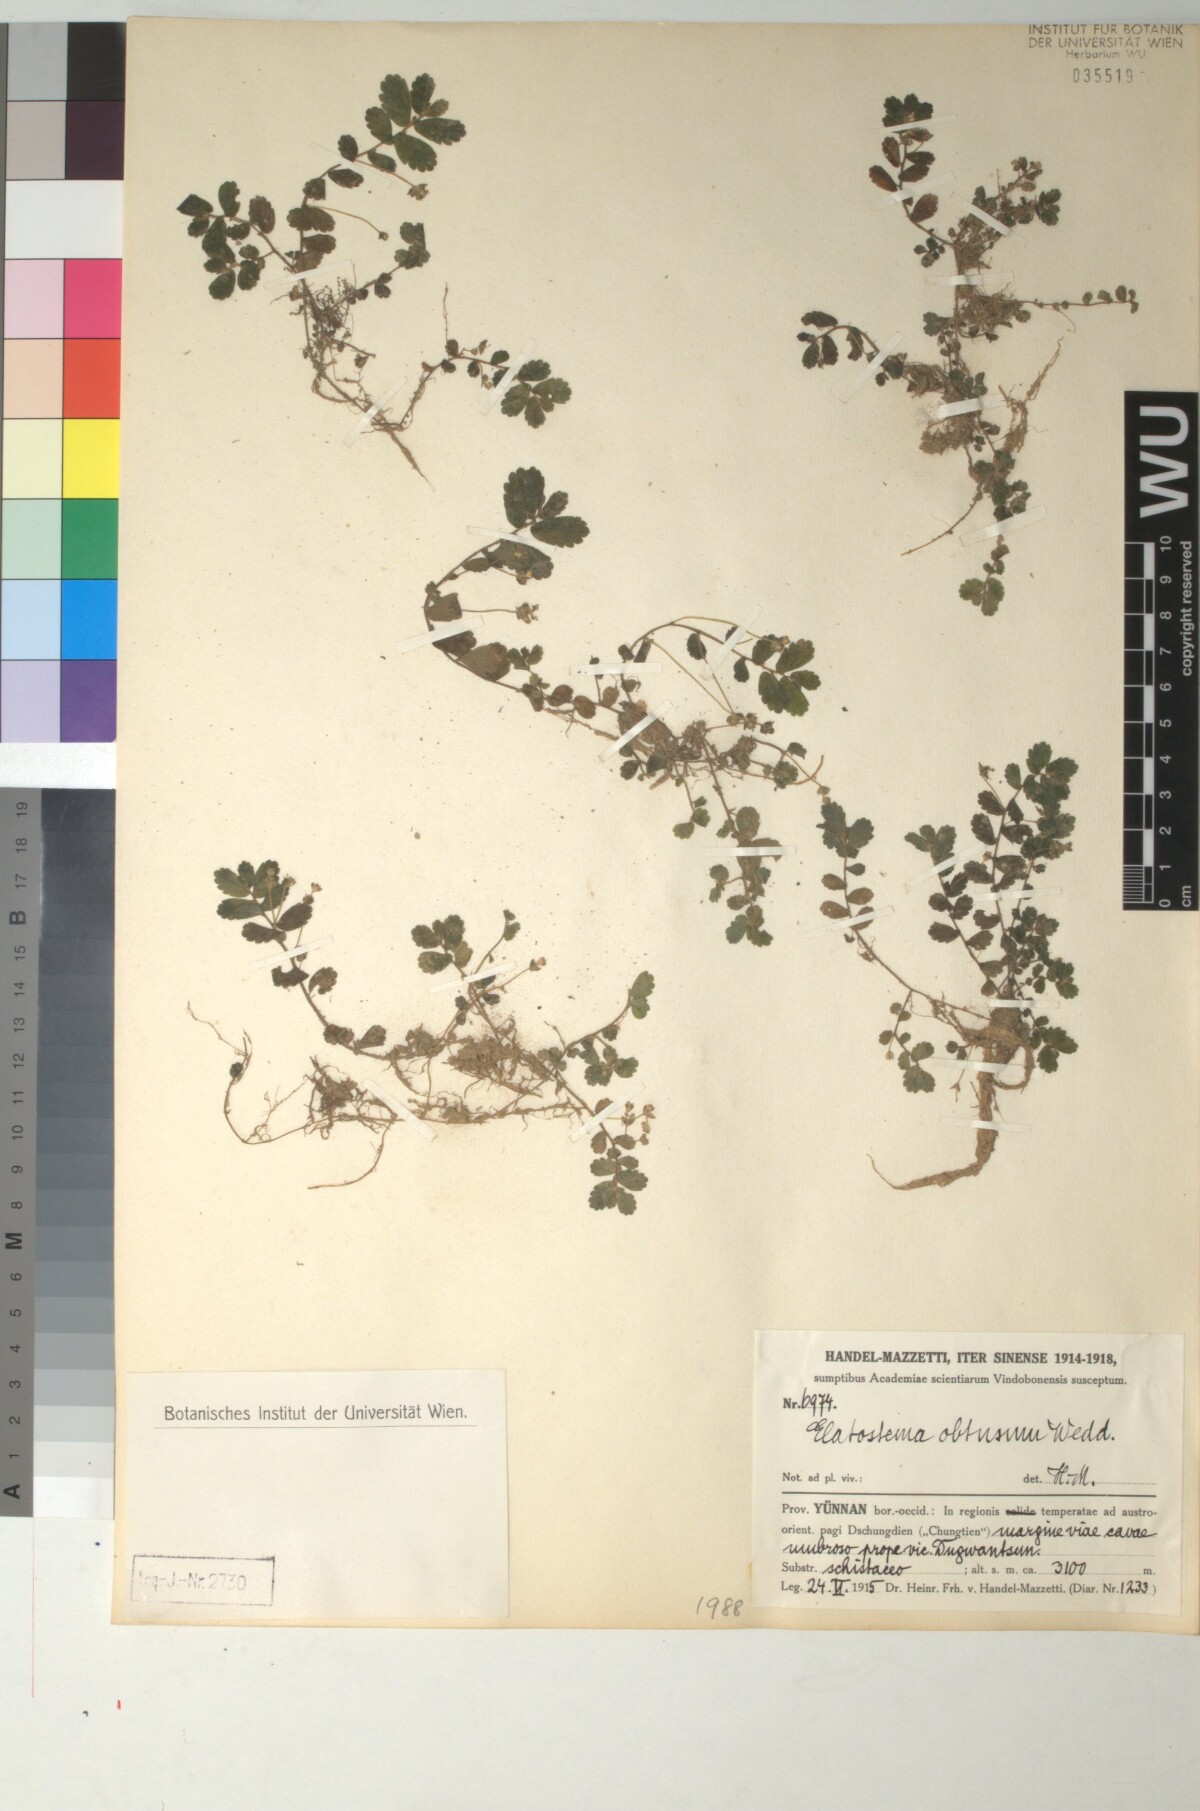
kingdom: Plantae
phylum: Tracheophyta
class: Magnoliopsida
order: Rosales
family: Urticaceae
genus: Elatostema
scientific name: Elatostema obtusum
